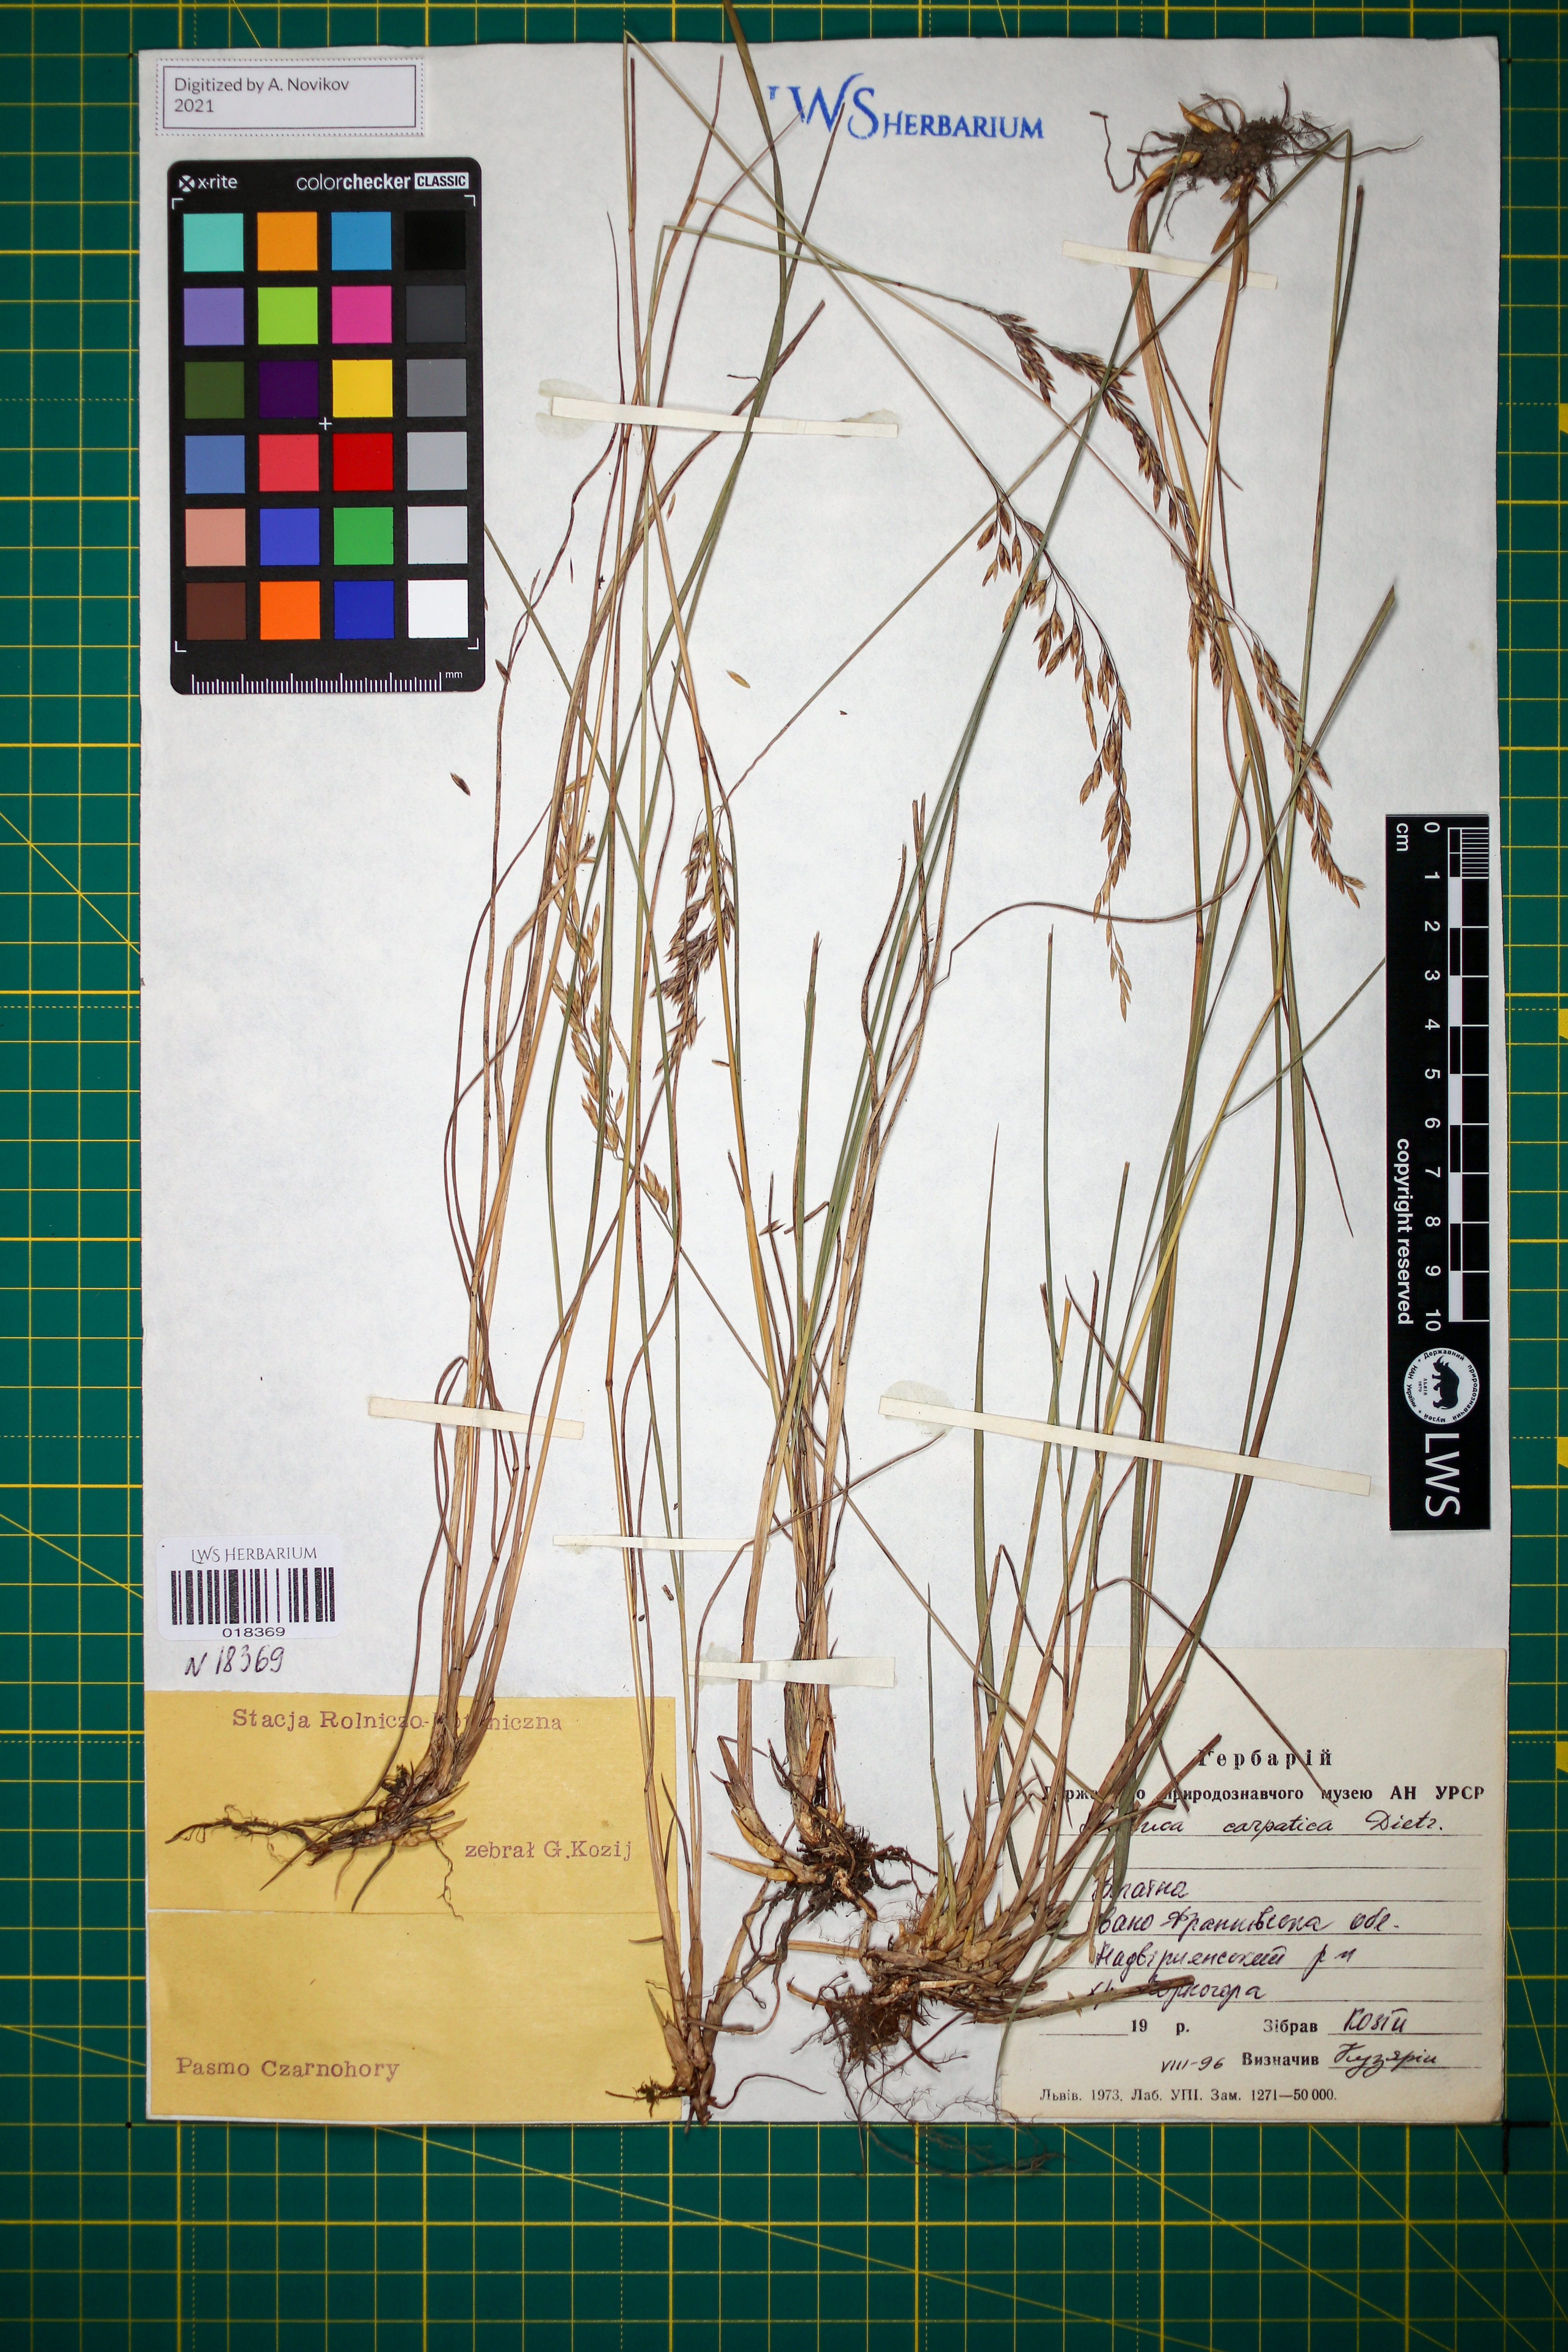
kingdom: Plantae
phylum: Tracheophyta
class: Liliopsida
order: Poales
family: Poaceae
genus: Festuca
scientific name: Festuca carpatica
